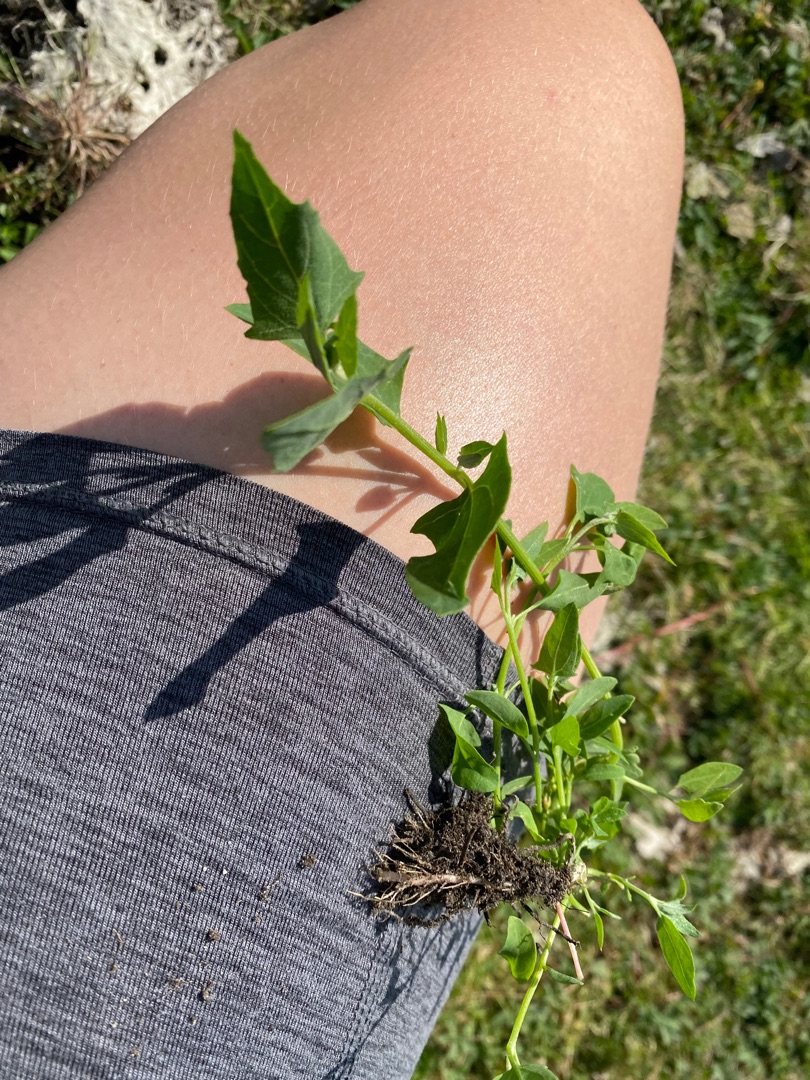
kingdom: Plantae
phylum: Tracheophyta
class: Magnoliopsida
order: Caryophyllales
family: Amaranthaceae
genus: Atriplex
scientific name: Atriplex prostrata
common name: Spyd-mælde
